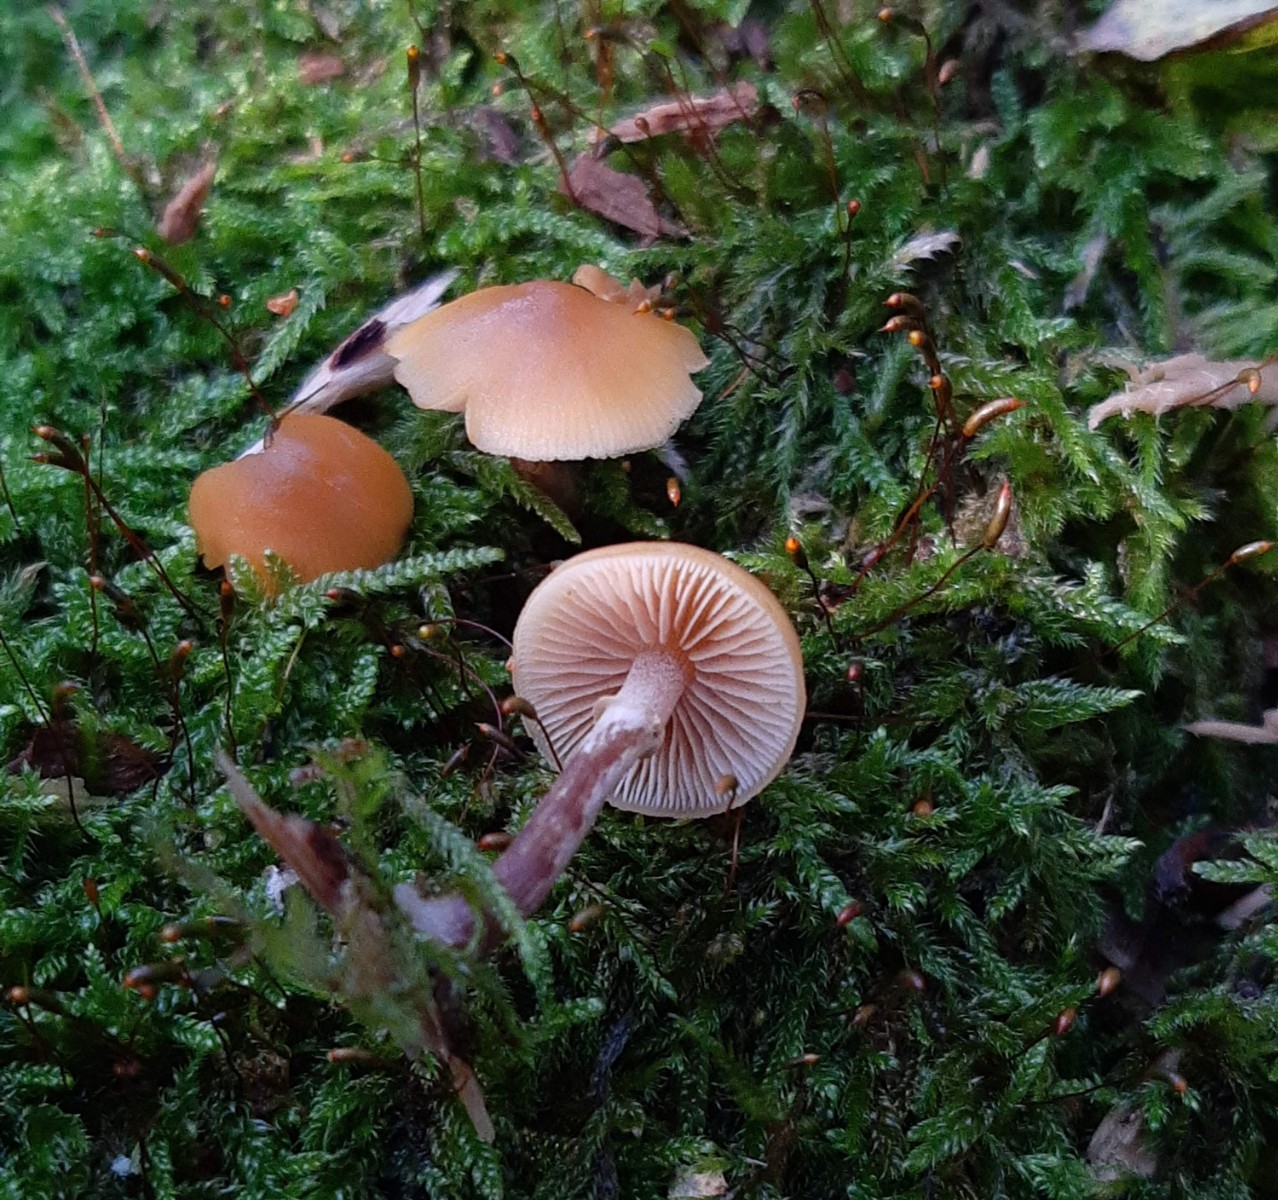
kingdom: Fungi
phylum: Basidiomycota
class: Agaricomycetes
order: Agaricales
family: Hymenogastraceae
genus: Galerina
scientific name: Galerina marginata
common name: randbæltet hjelmhat
